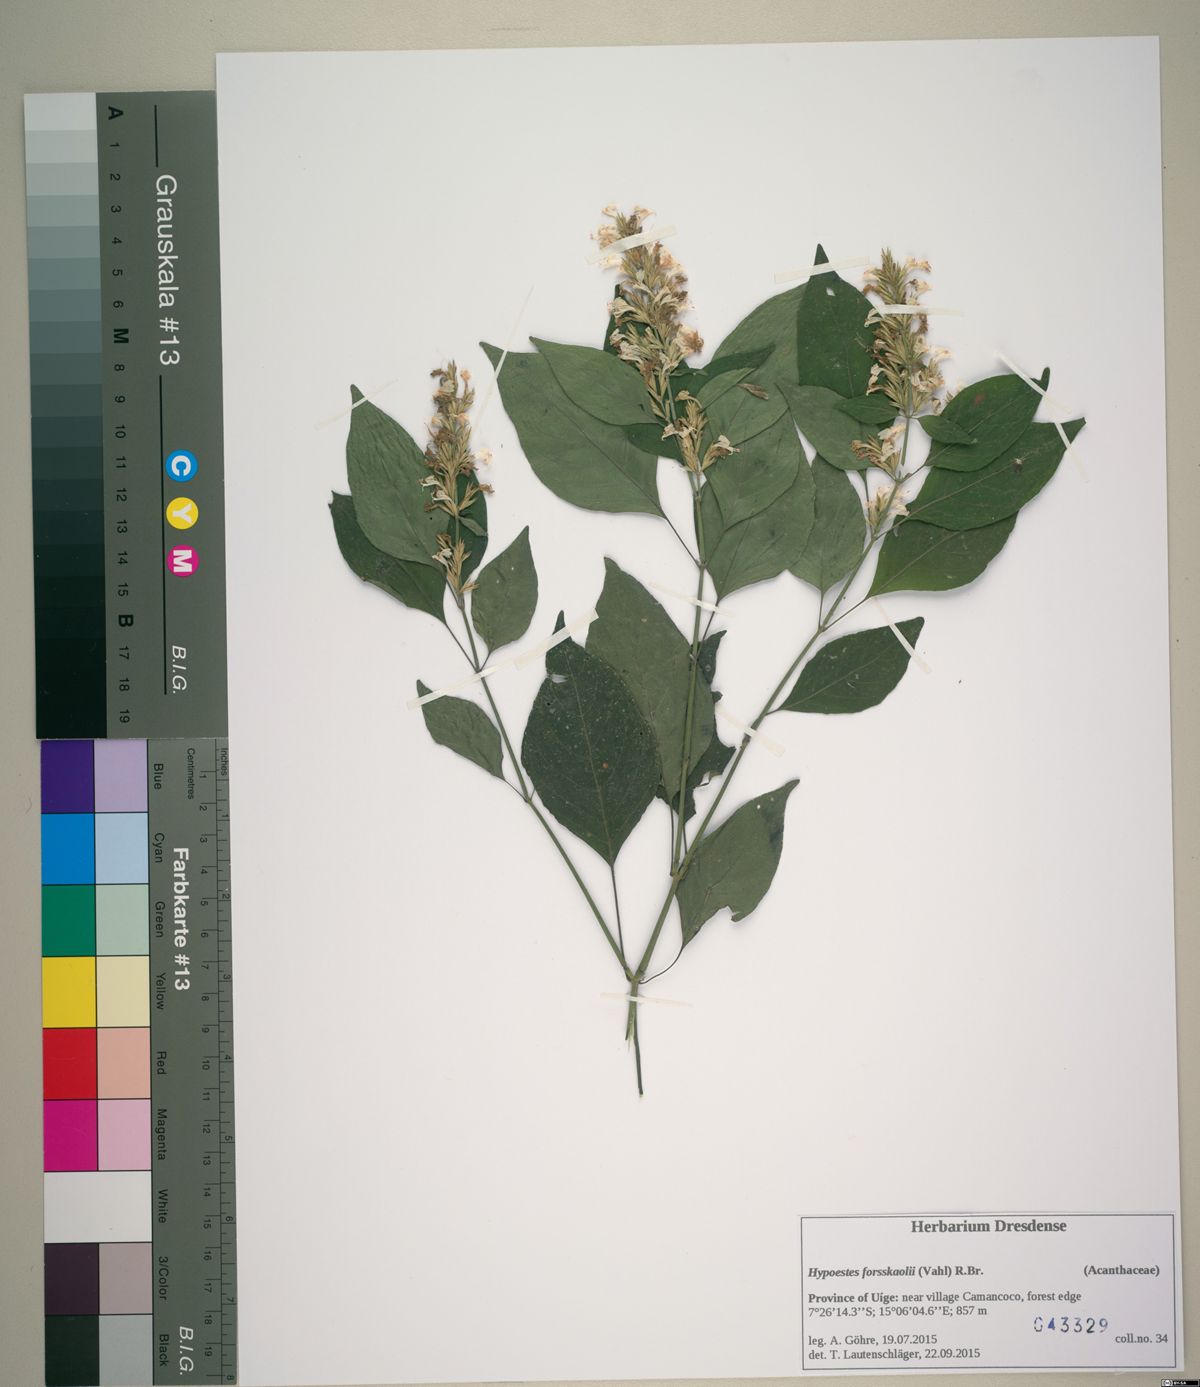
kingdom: Plantae
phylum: Tracheophyta
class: Magnoliopsida
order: Lamiales
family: Acanthaceae
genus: Hypoestes
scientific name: Hypoestes forskaolii
